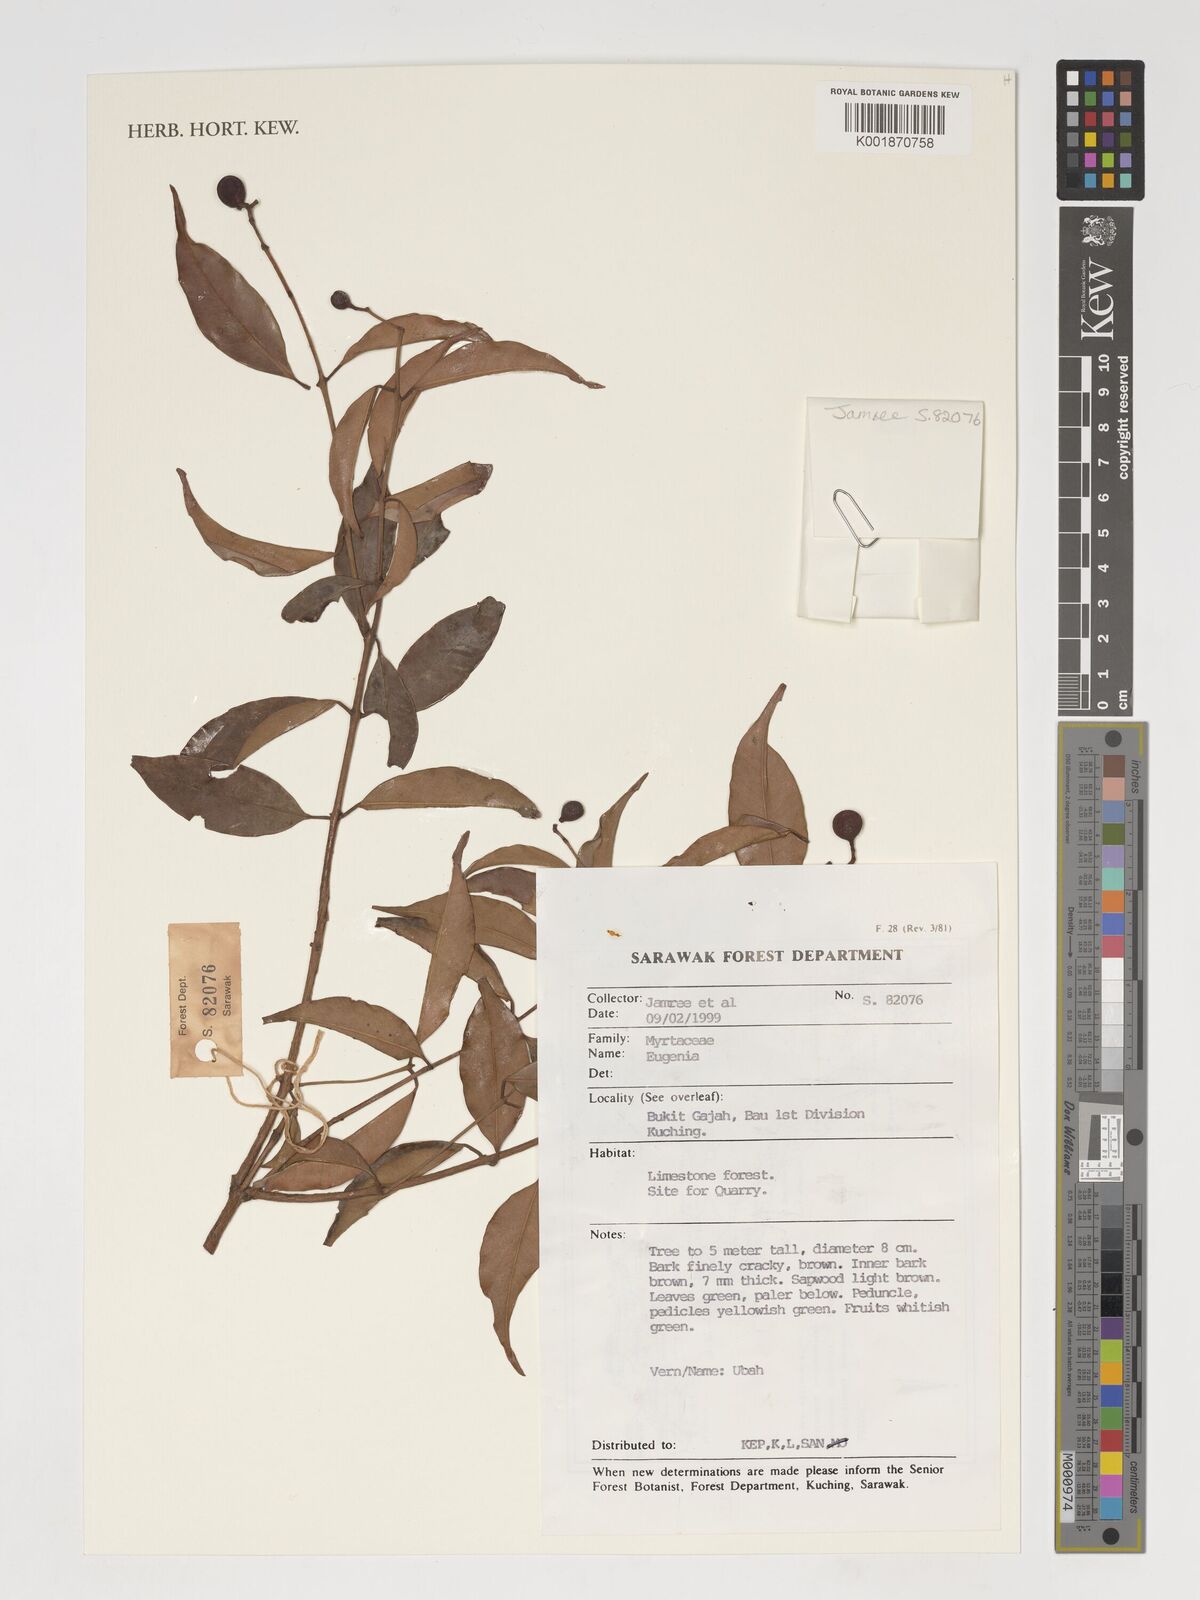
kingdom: Plantae
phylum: Tracheophyta
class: Magnoliopsida
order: Myrtales
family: Myrtaceae
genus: Eugenia
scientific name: Eugenia
